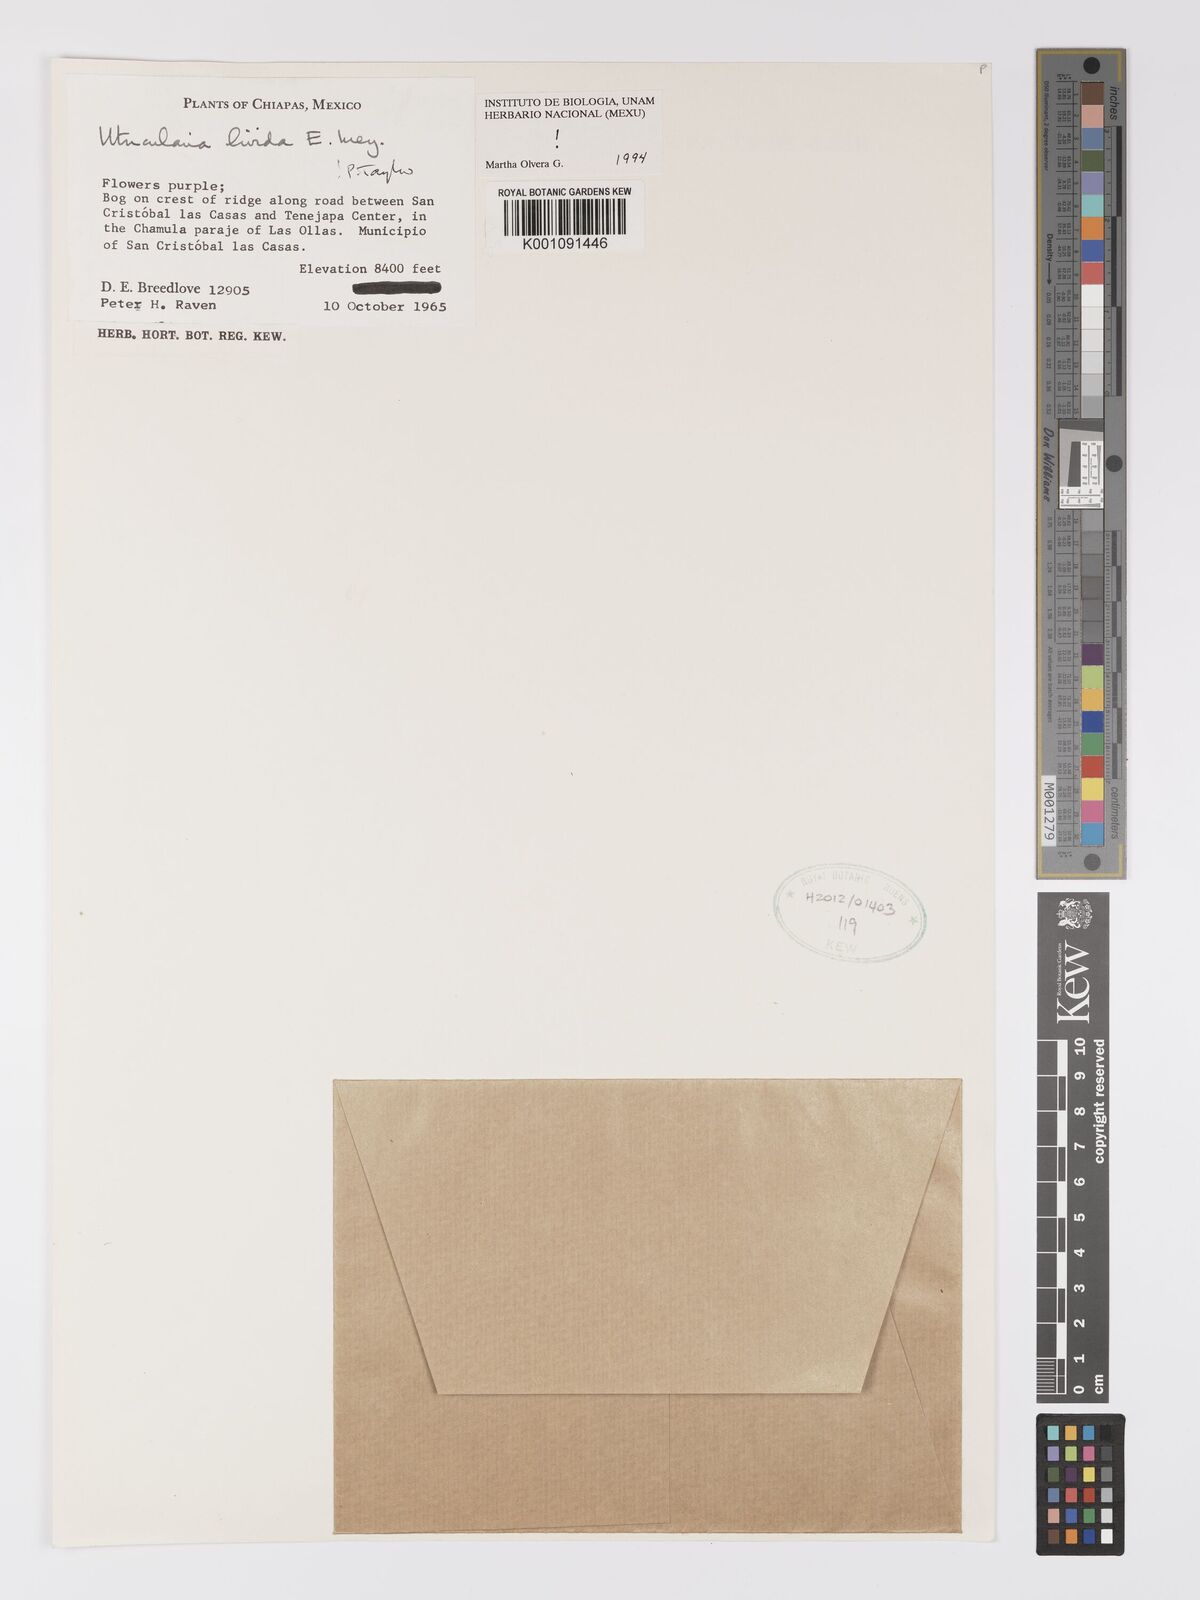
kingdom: Plantae
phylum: Tracheophyta
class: Magnoliopsida
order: Lamiales
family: Lentibulariaceae
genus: Utricularia
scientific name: Utricularia livida
